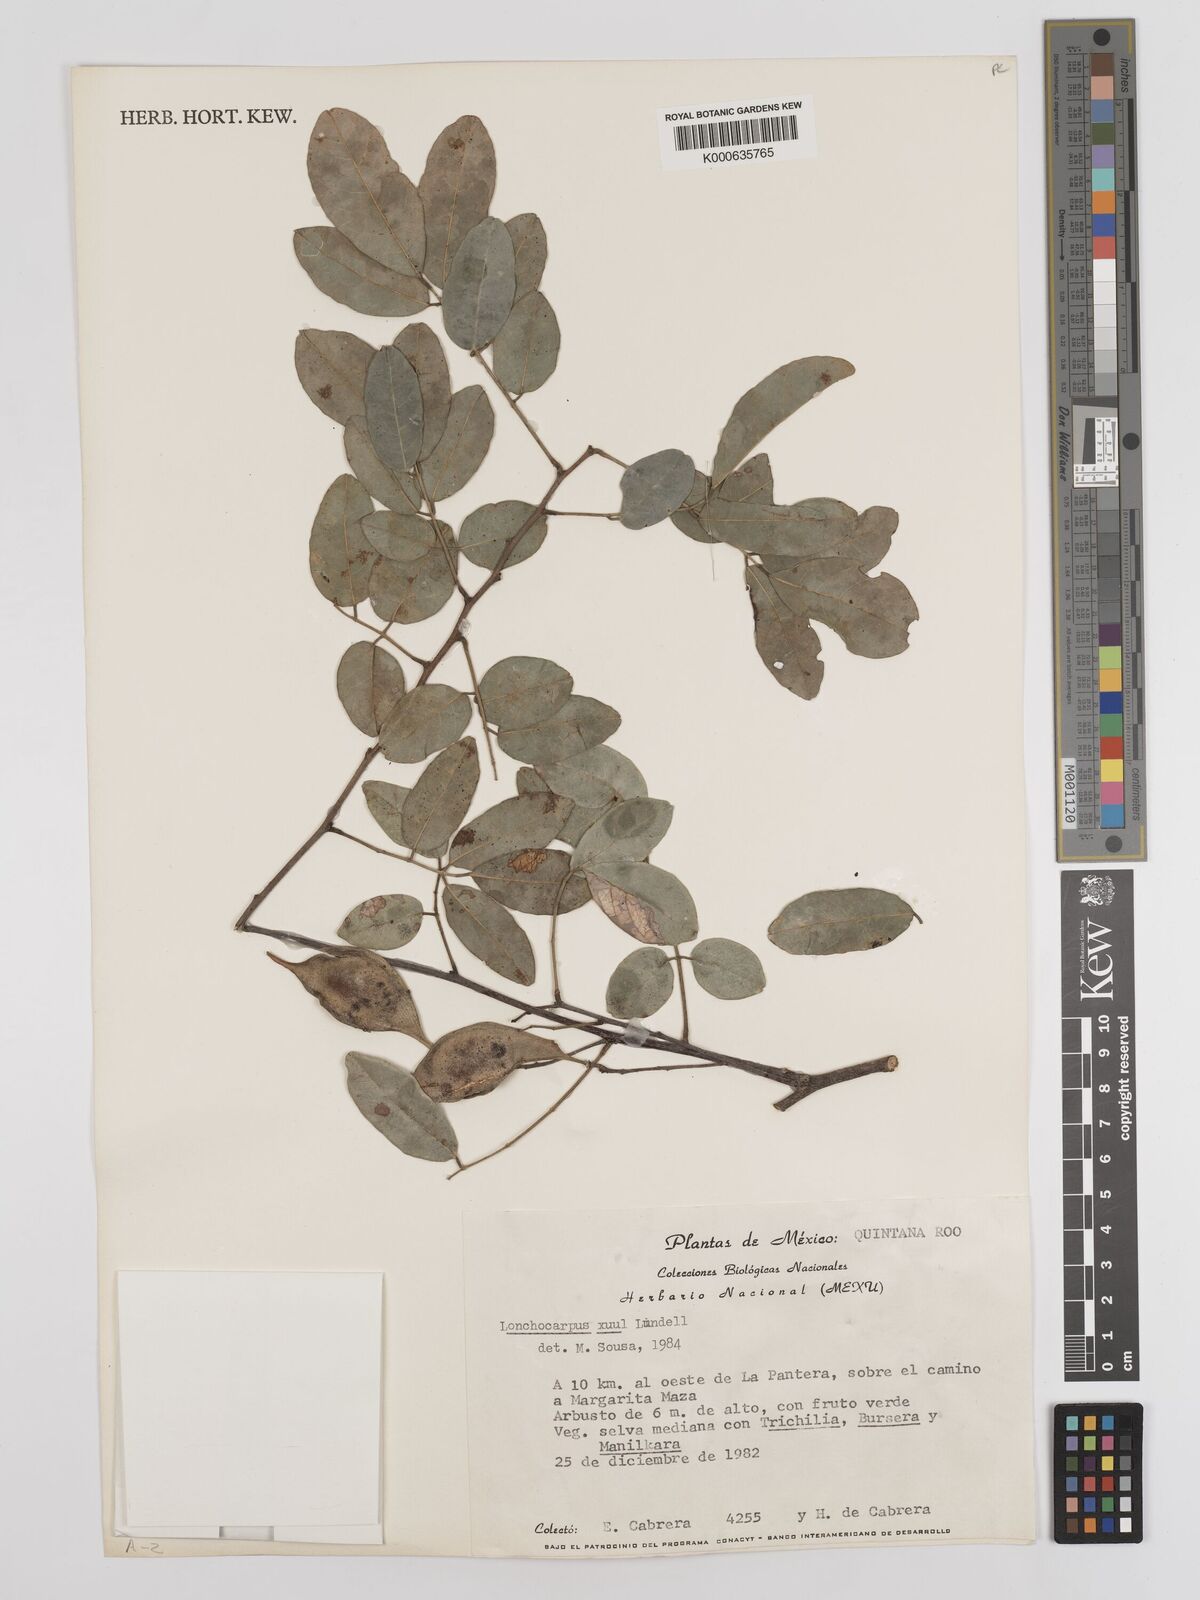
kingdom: Plantae
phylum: Tracheophyta
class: Magnoliopsida
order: Fabales
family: Fabaceae
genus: Lonchocarpus
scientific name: Lonchocarpus guatemalensis
